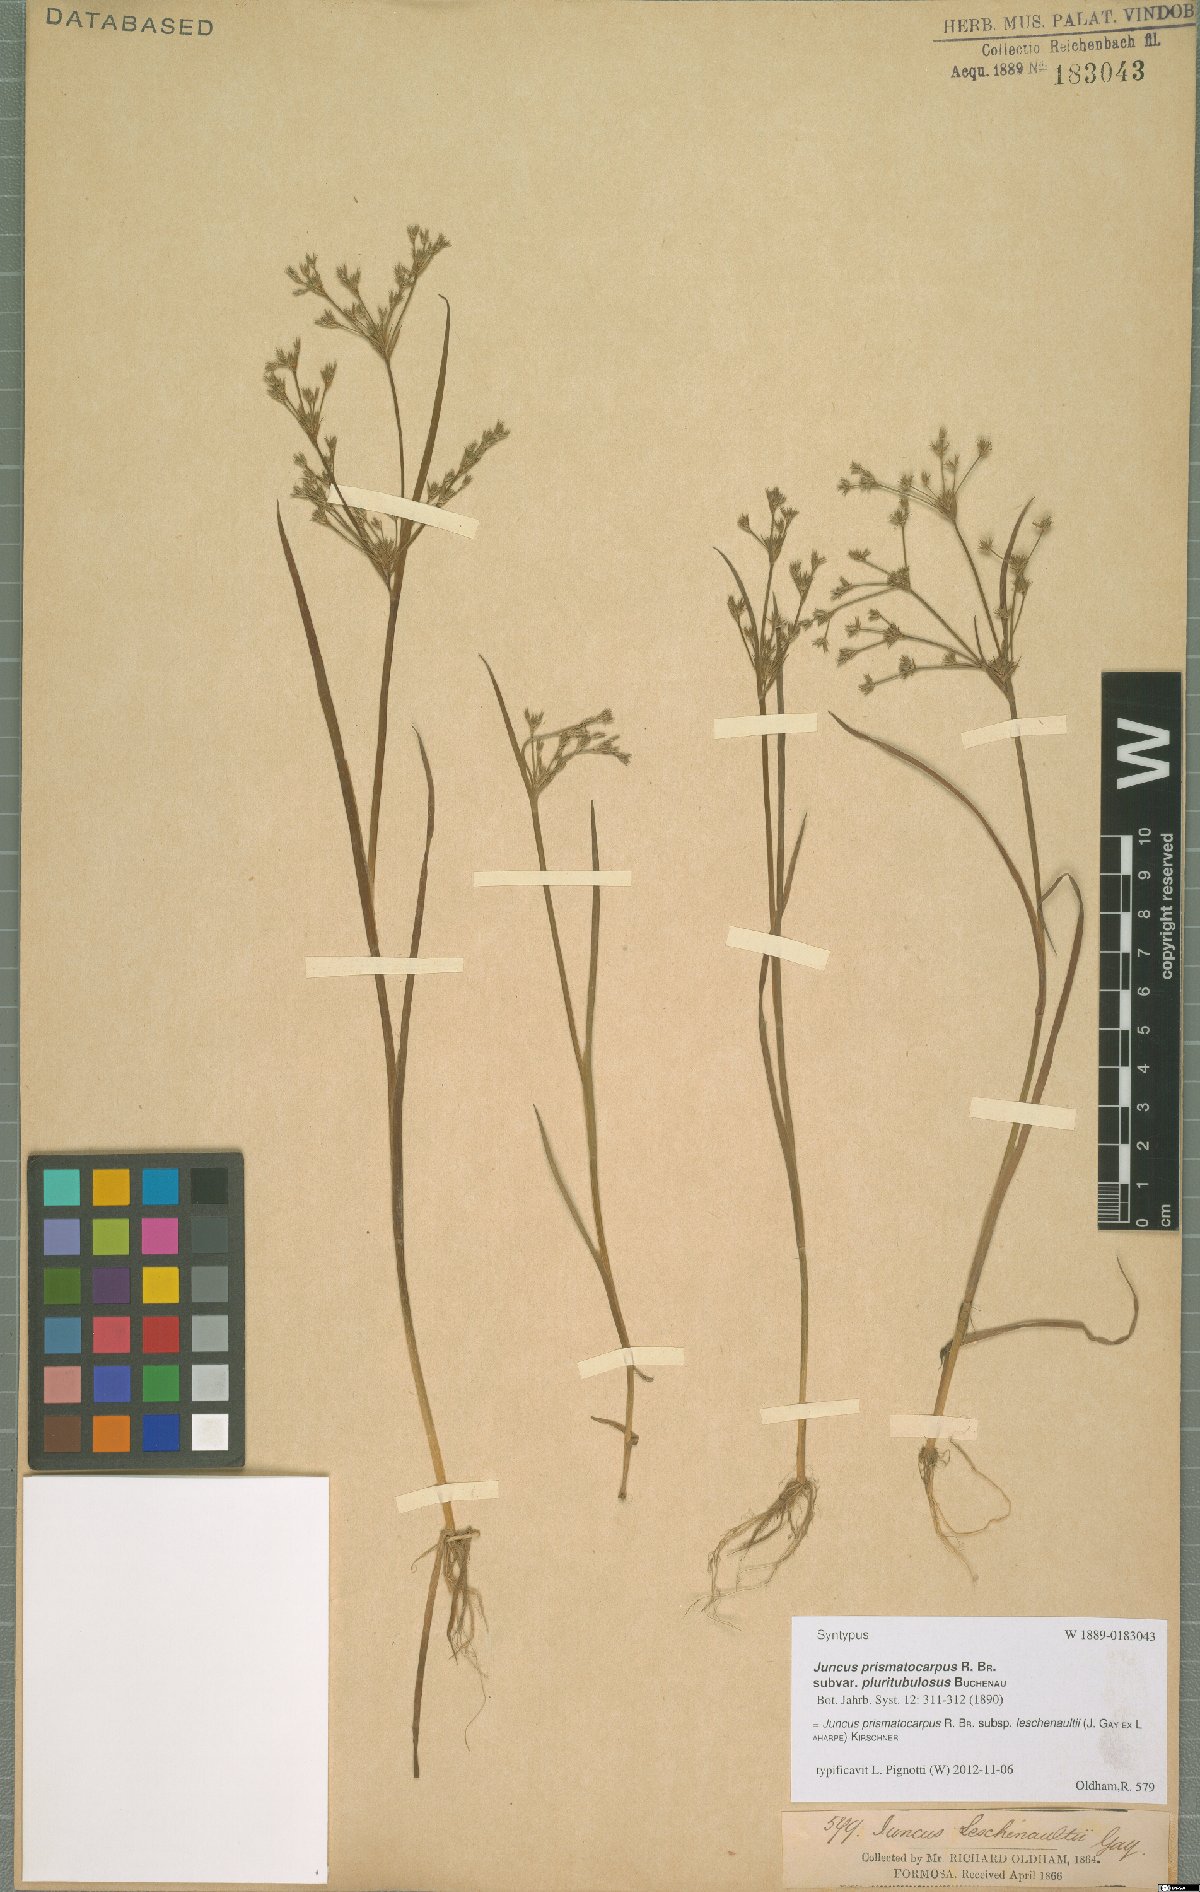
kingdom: Plantae
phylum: Tracheophyta
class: Liliopsida
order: Poales
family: Juncaceae
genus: Juncus
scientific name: Juncus prismatocarpus
